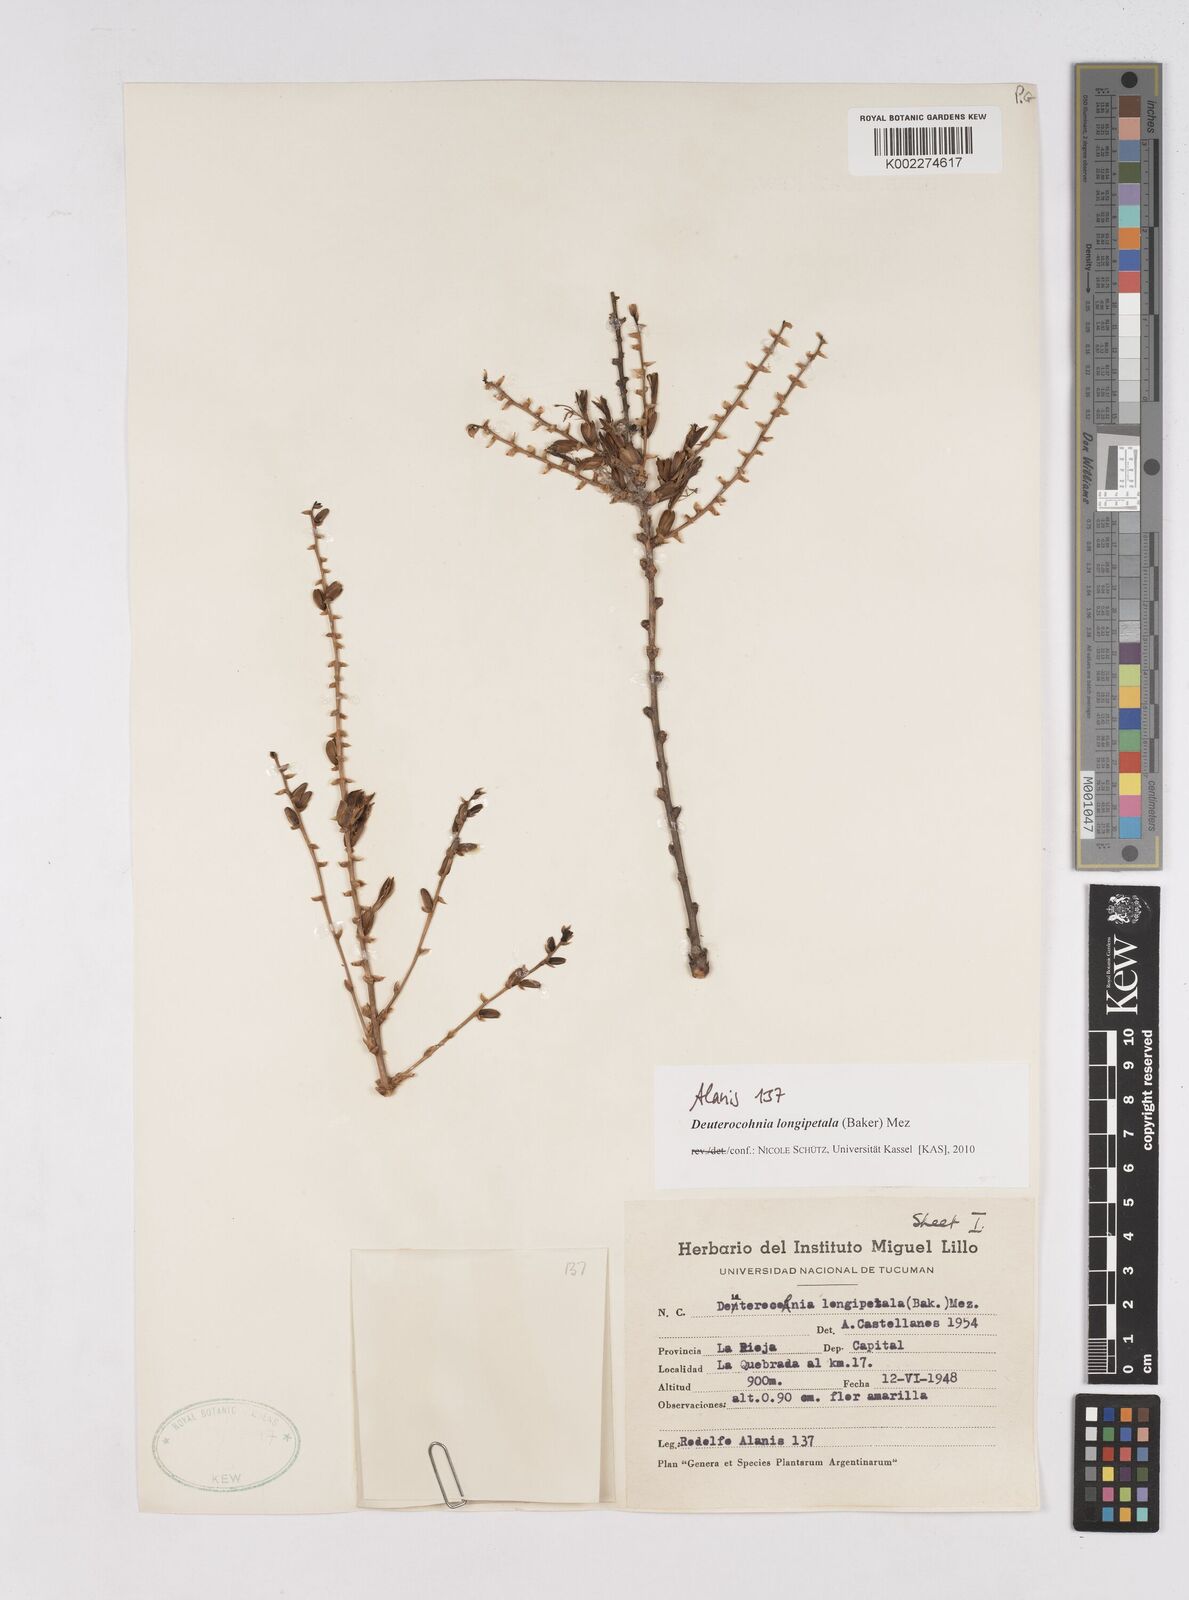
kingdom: Plantae
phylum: Tracheophyta
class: Liliopsida
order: Poales
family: Bromeliaceae
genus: Deuterocohnia
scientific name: Deuterocohnia longipetala
